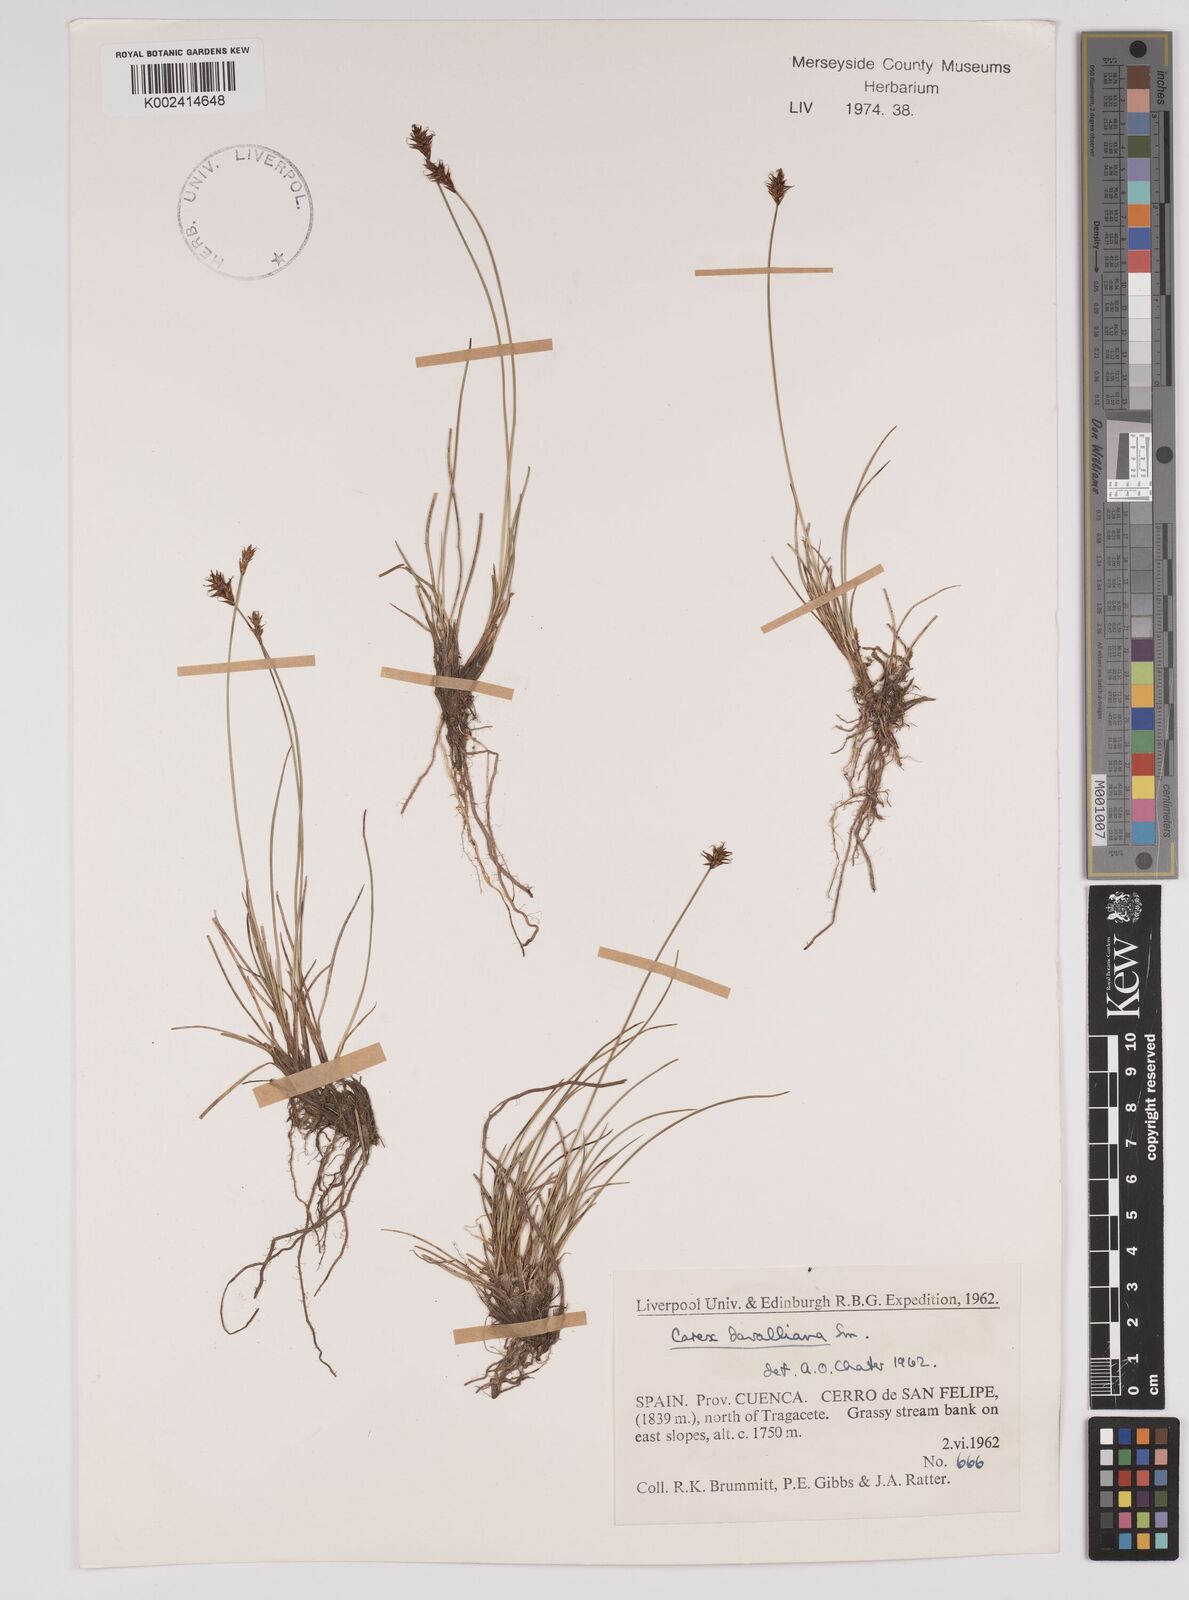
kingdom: Plantae
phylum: Tracheophyta
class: Liliopsida
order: Poales
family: Cyperaceae
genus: Carex
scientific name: Carex davalliana
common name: Davall's sedge
